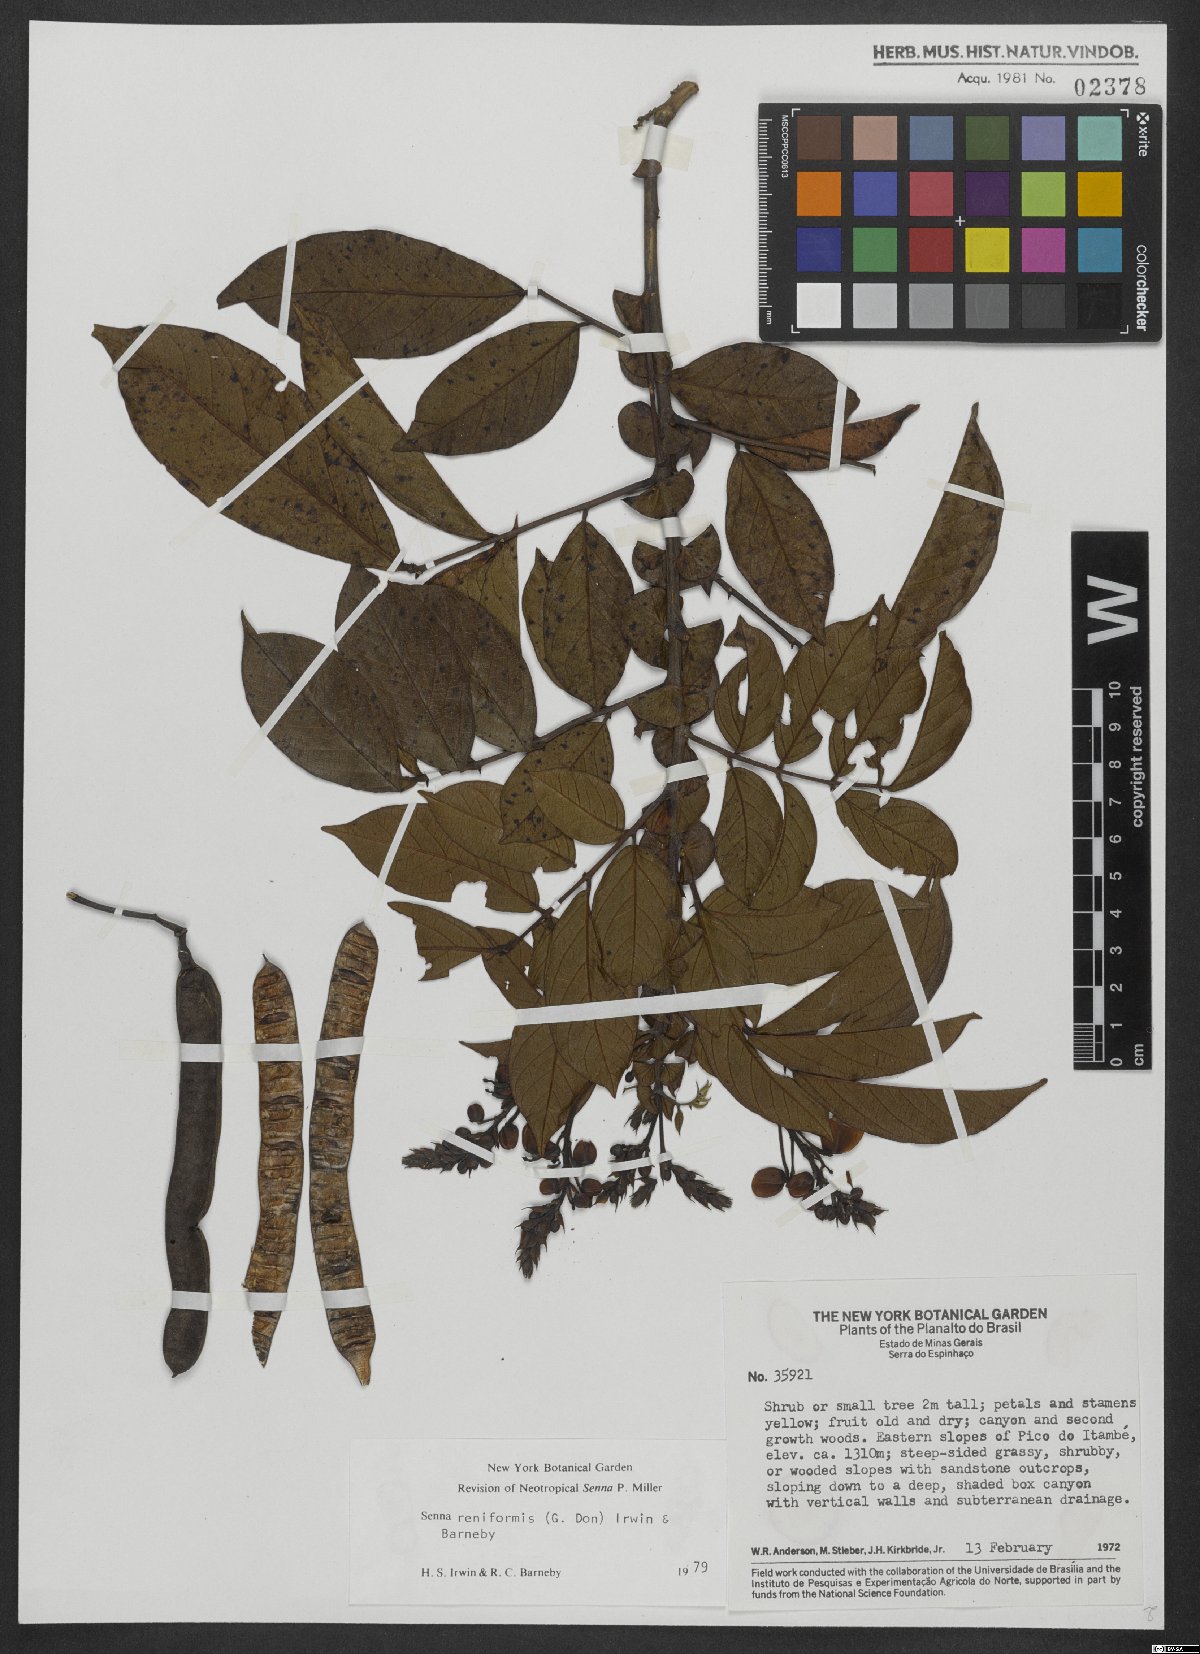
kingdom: Plantae
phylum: Tracheophyta
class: Magnoliopsida
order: Fabales
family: Fabaceae
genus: Senna
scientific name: Senna reniformis
